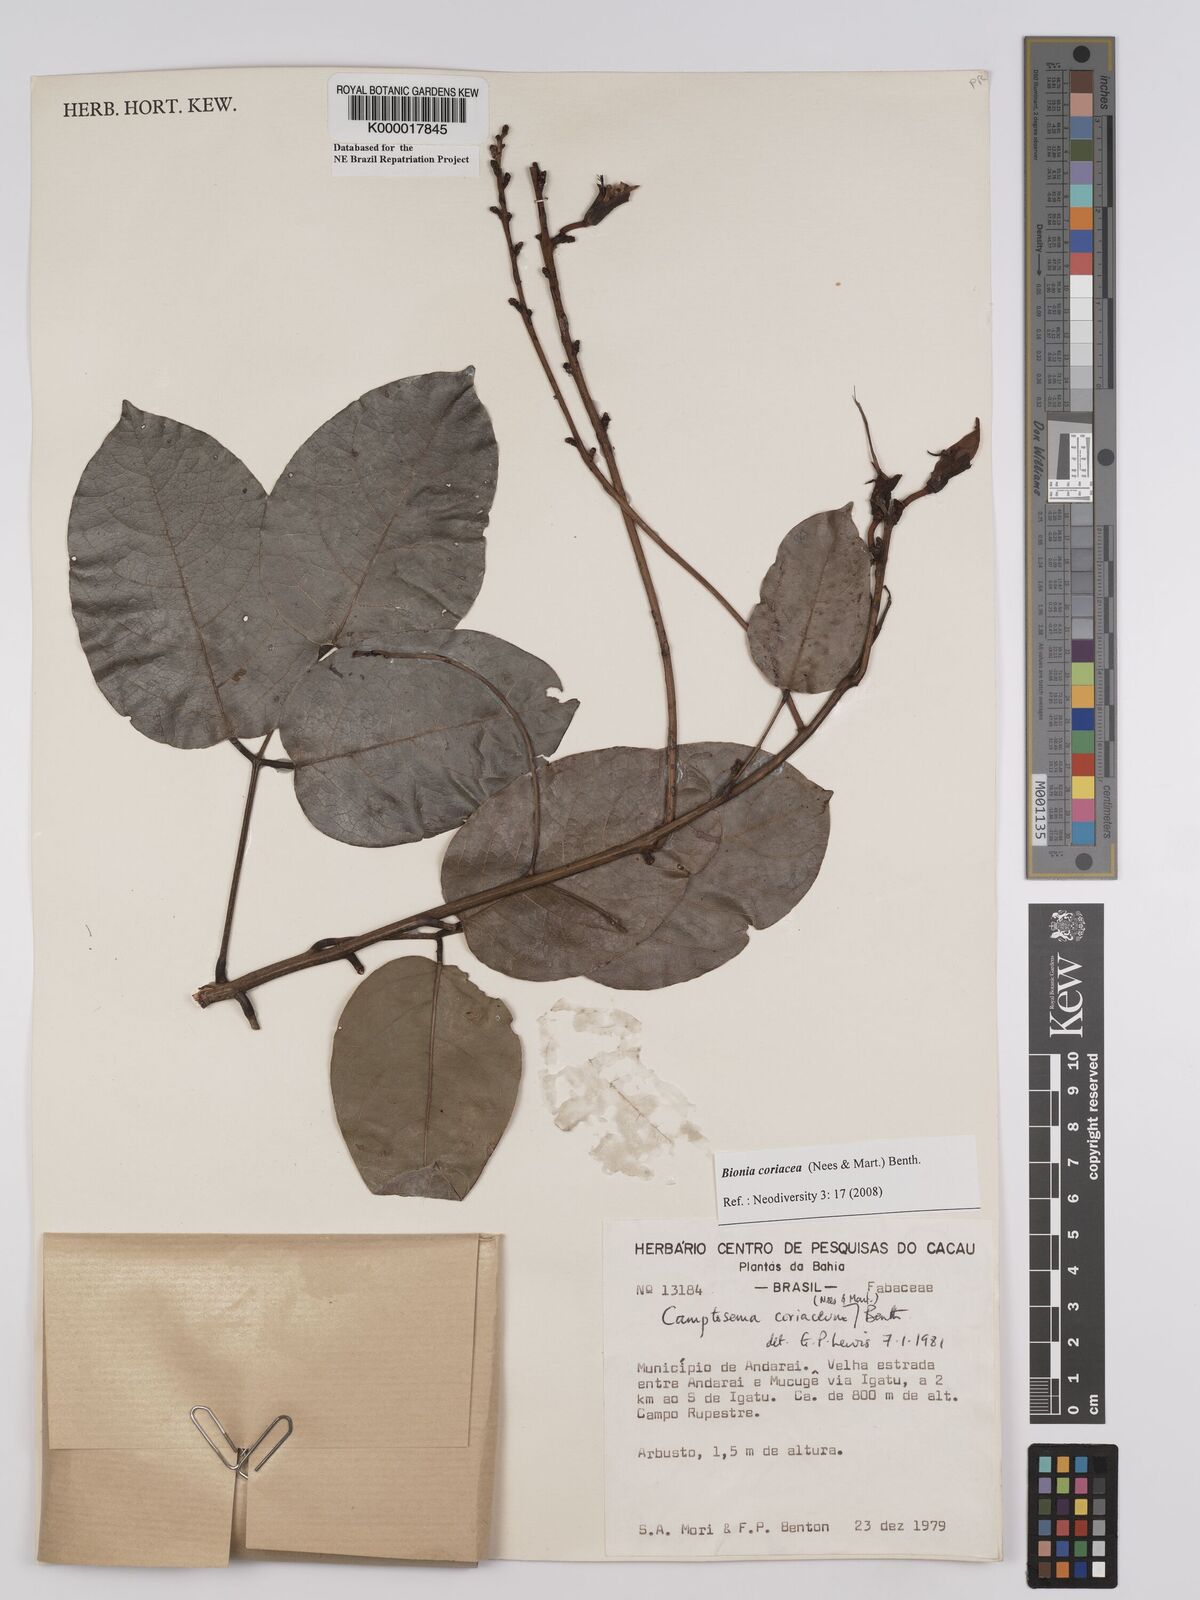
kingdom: Plantae
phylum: Tracheophyta
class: Magnoliopsida
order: Fabales
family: Fabaceae
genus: Camptosema
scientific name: Camptosema coriaceum
